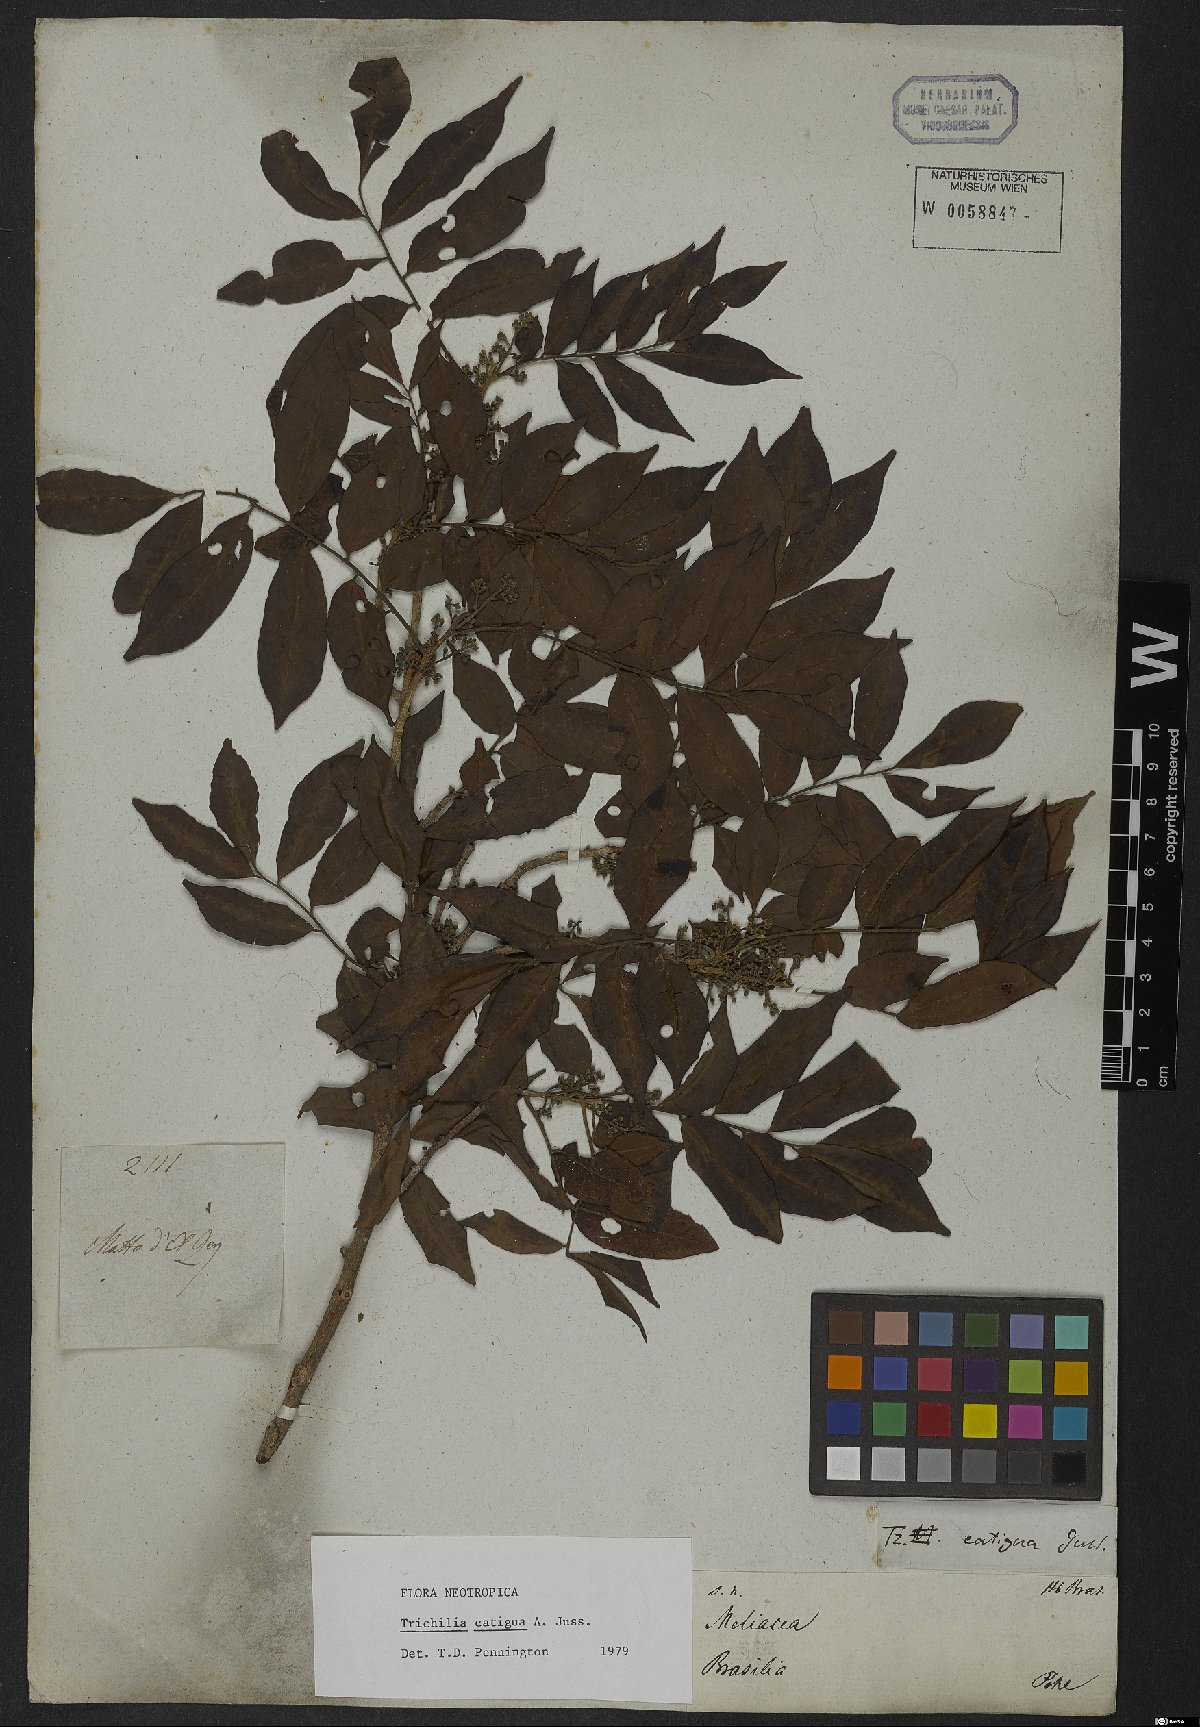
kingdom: Plantae
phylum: Tracheophyta
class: Magnoliopsida
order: Sapindales
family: Meliaceae
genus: Trichilia
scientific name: Trichilia catigua
